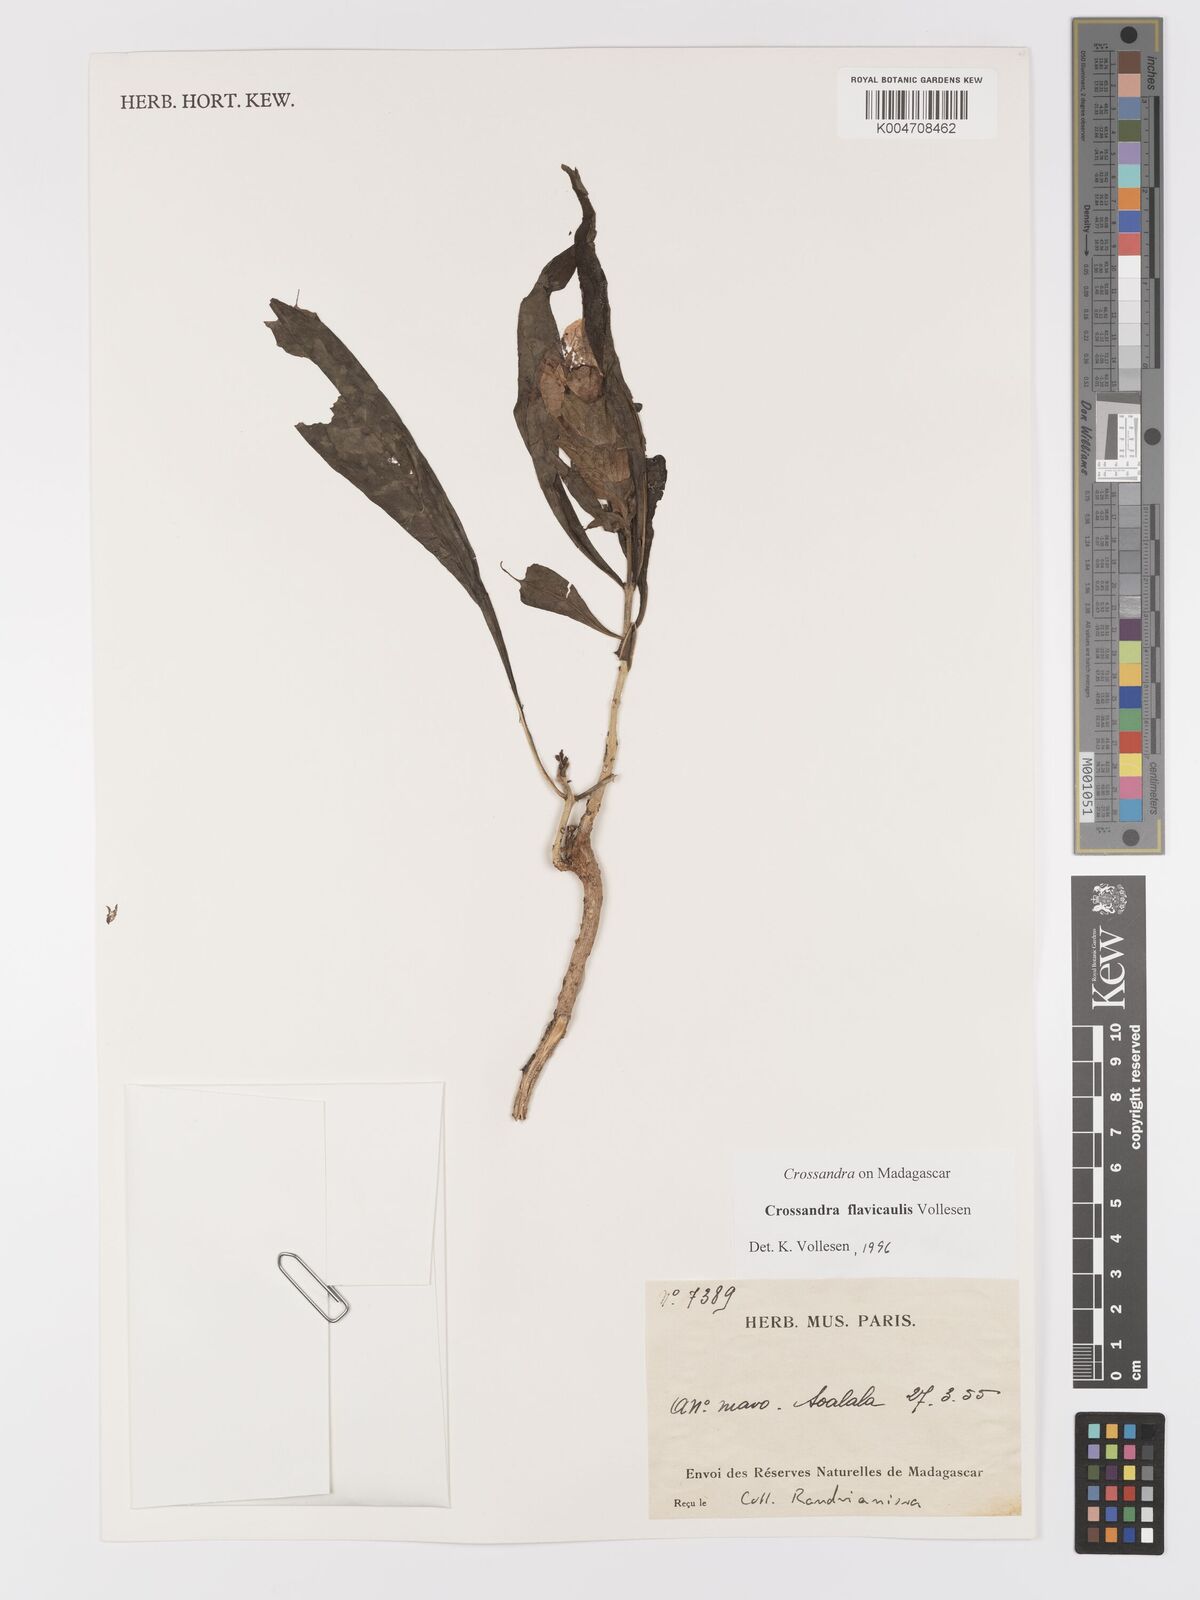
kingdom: Plantae
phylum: Tracheophyta
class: Magnoliopsida
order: Lamiales
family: Acanthaceae
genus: Crossandra
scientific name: Crossandra flavicaulis
